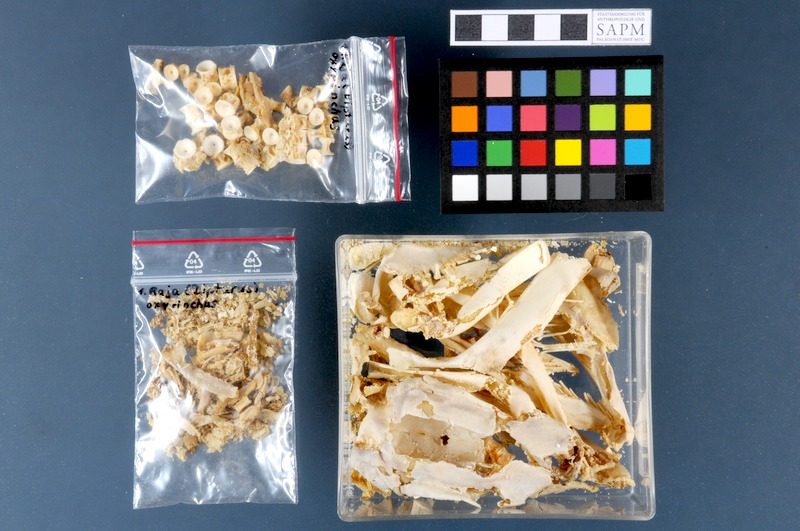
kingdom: Animalia
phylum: Chordata
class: Elasmobranchii
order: Rajiformes
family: Rajidae
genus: Dipturus
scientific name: Dipturus oxyrinchus
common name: Longnosed skate
